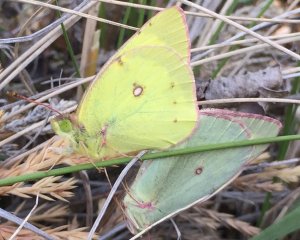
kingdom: Animalia
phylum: Arthropoda
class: Insecta
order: Lepidoptera
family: Pieridae
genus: Colias
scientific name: Colias philodice
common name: Clouded Sulphur
